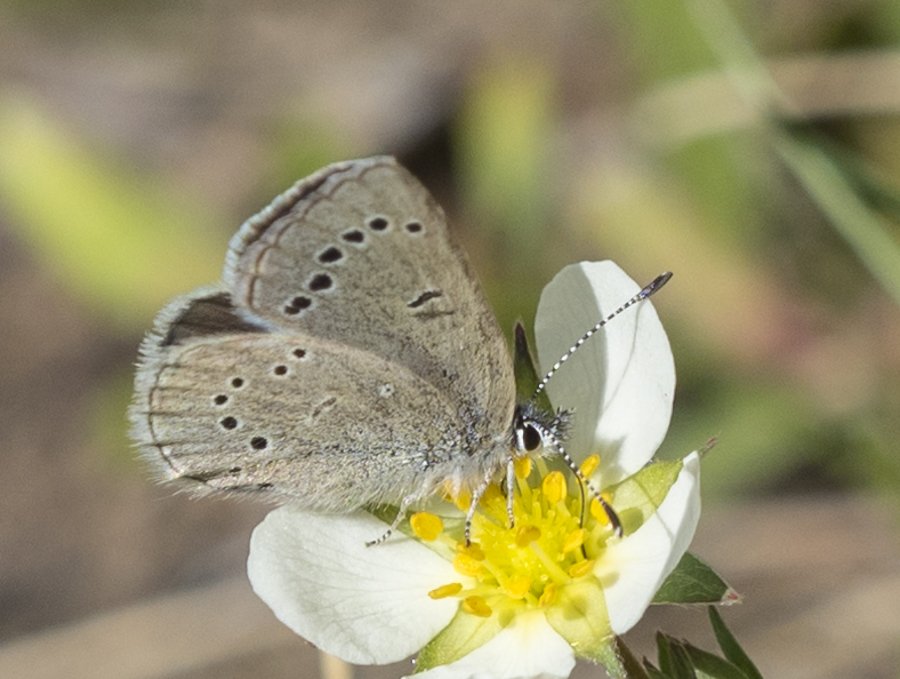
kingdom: Animalia
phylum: Arthropoda
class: Insecta
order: Lepidoptera
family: Lycaenidae
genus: Glaucopsyche
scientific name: Glaucopsyche lygdamus
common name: Silvery Blue
